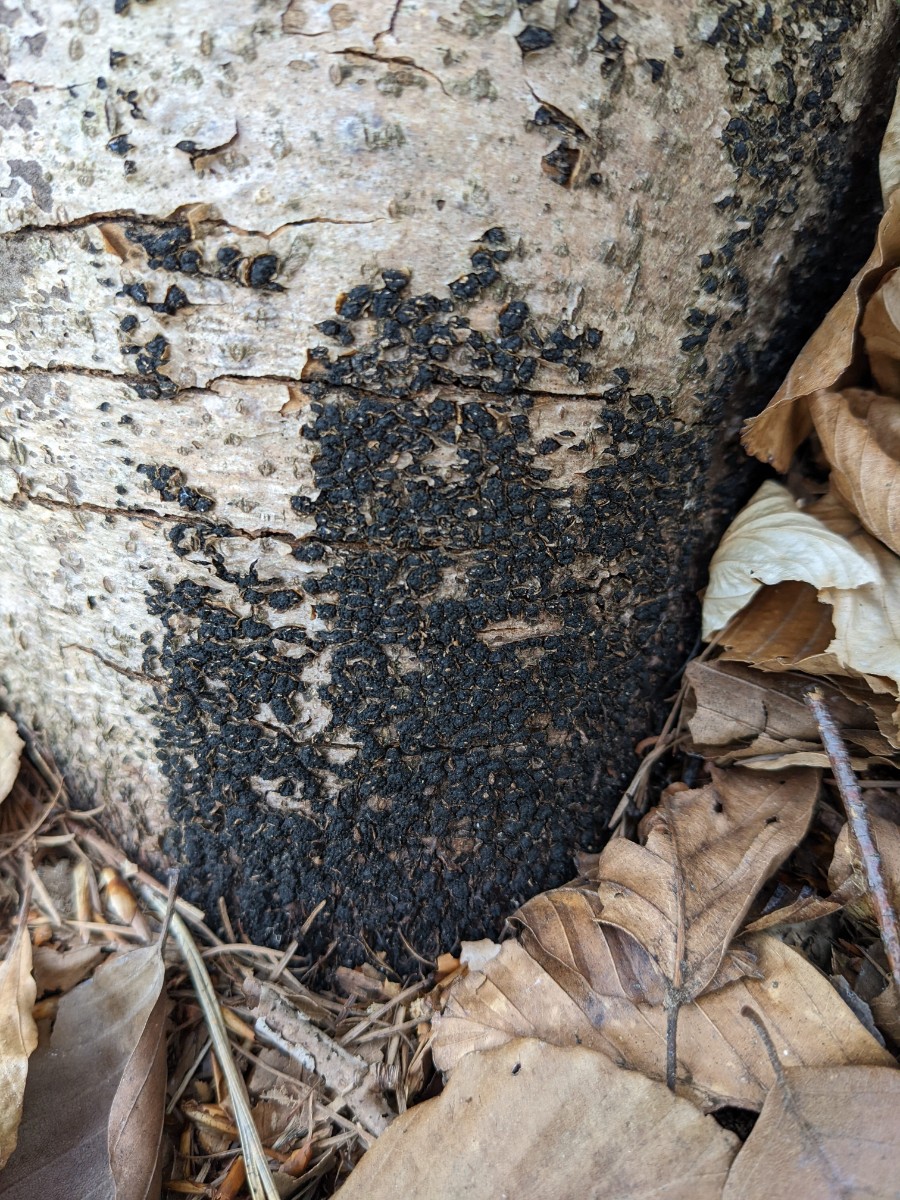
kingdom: Fungi
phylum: Ascomycota
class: Sordariomycetes
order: Xylariales
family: Melogrammataceae
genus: Melogramma
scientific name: Melogramma spiniferum
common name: bøgefod-kulhals
